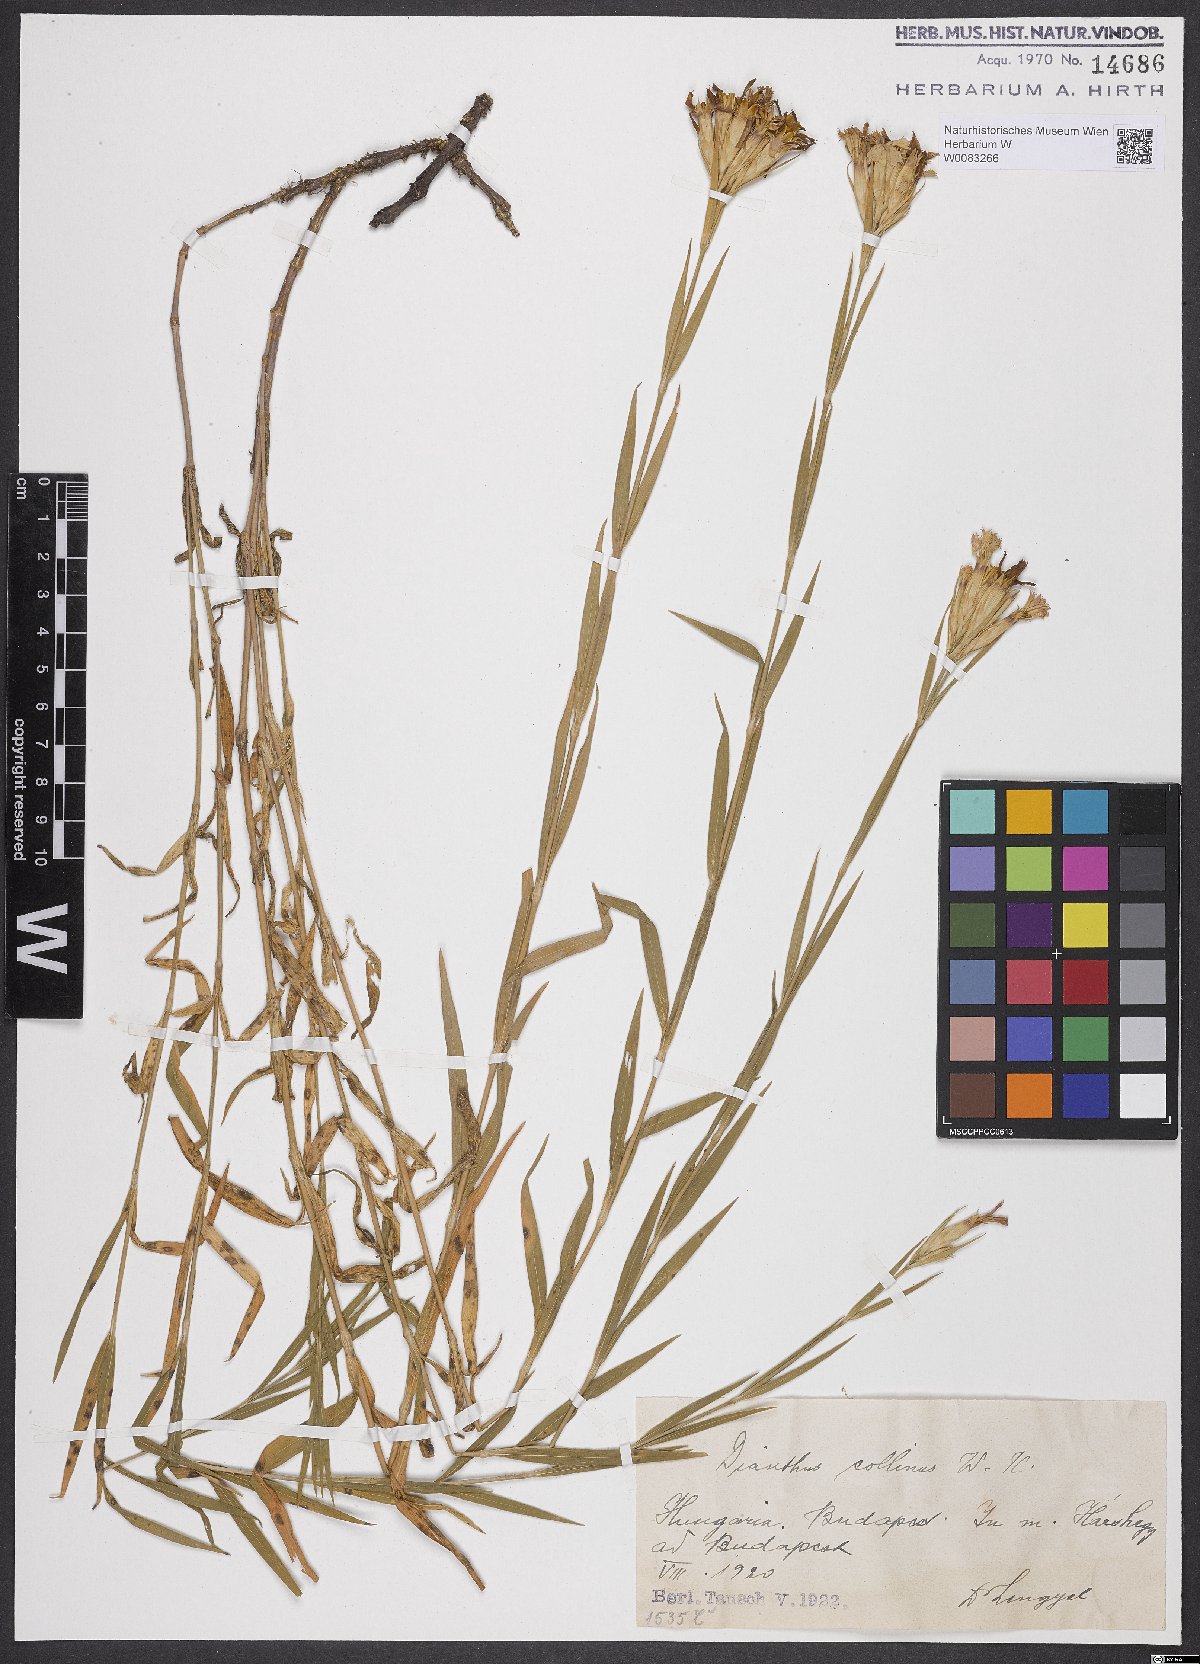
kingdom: Plantae
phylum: Tracheophyta
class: Magnoliopsida
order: Caryophyllales
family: Caryophyllaceae
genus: Dianthus
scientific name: Dianthus collinus
